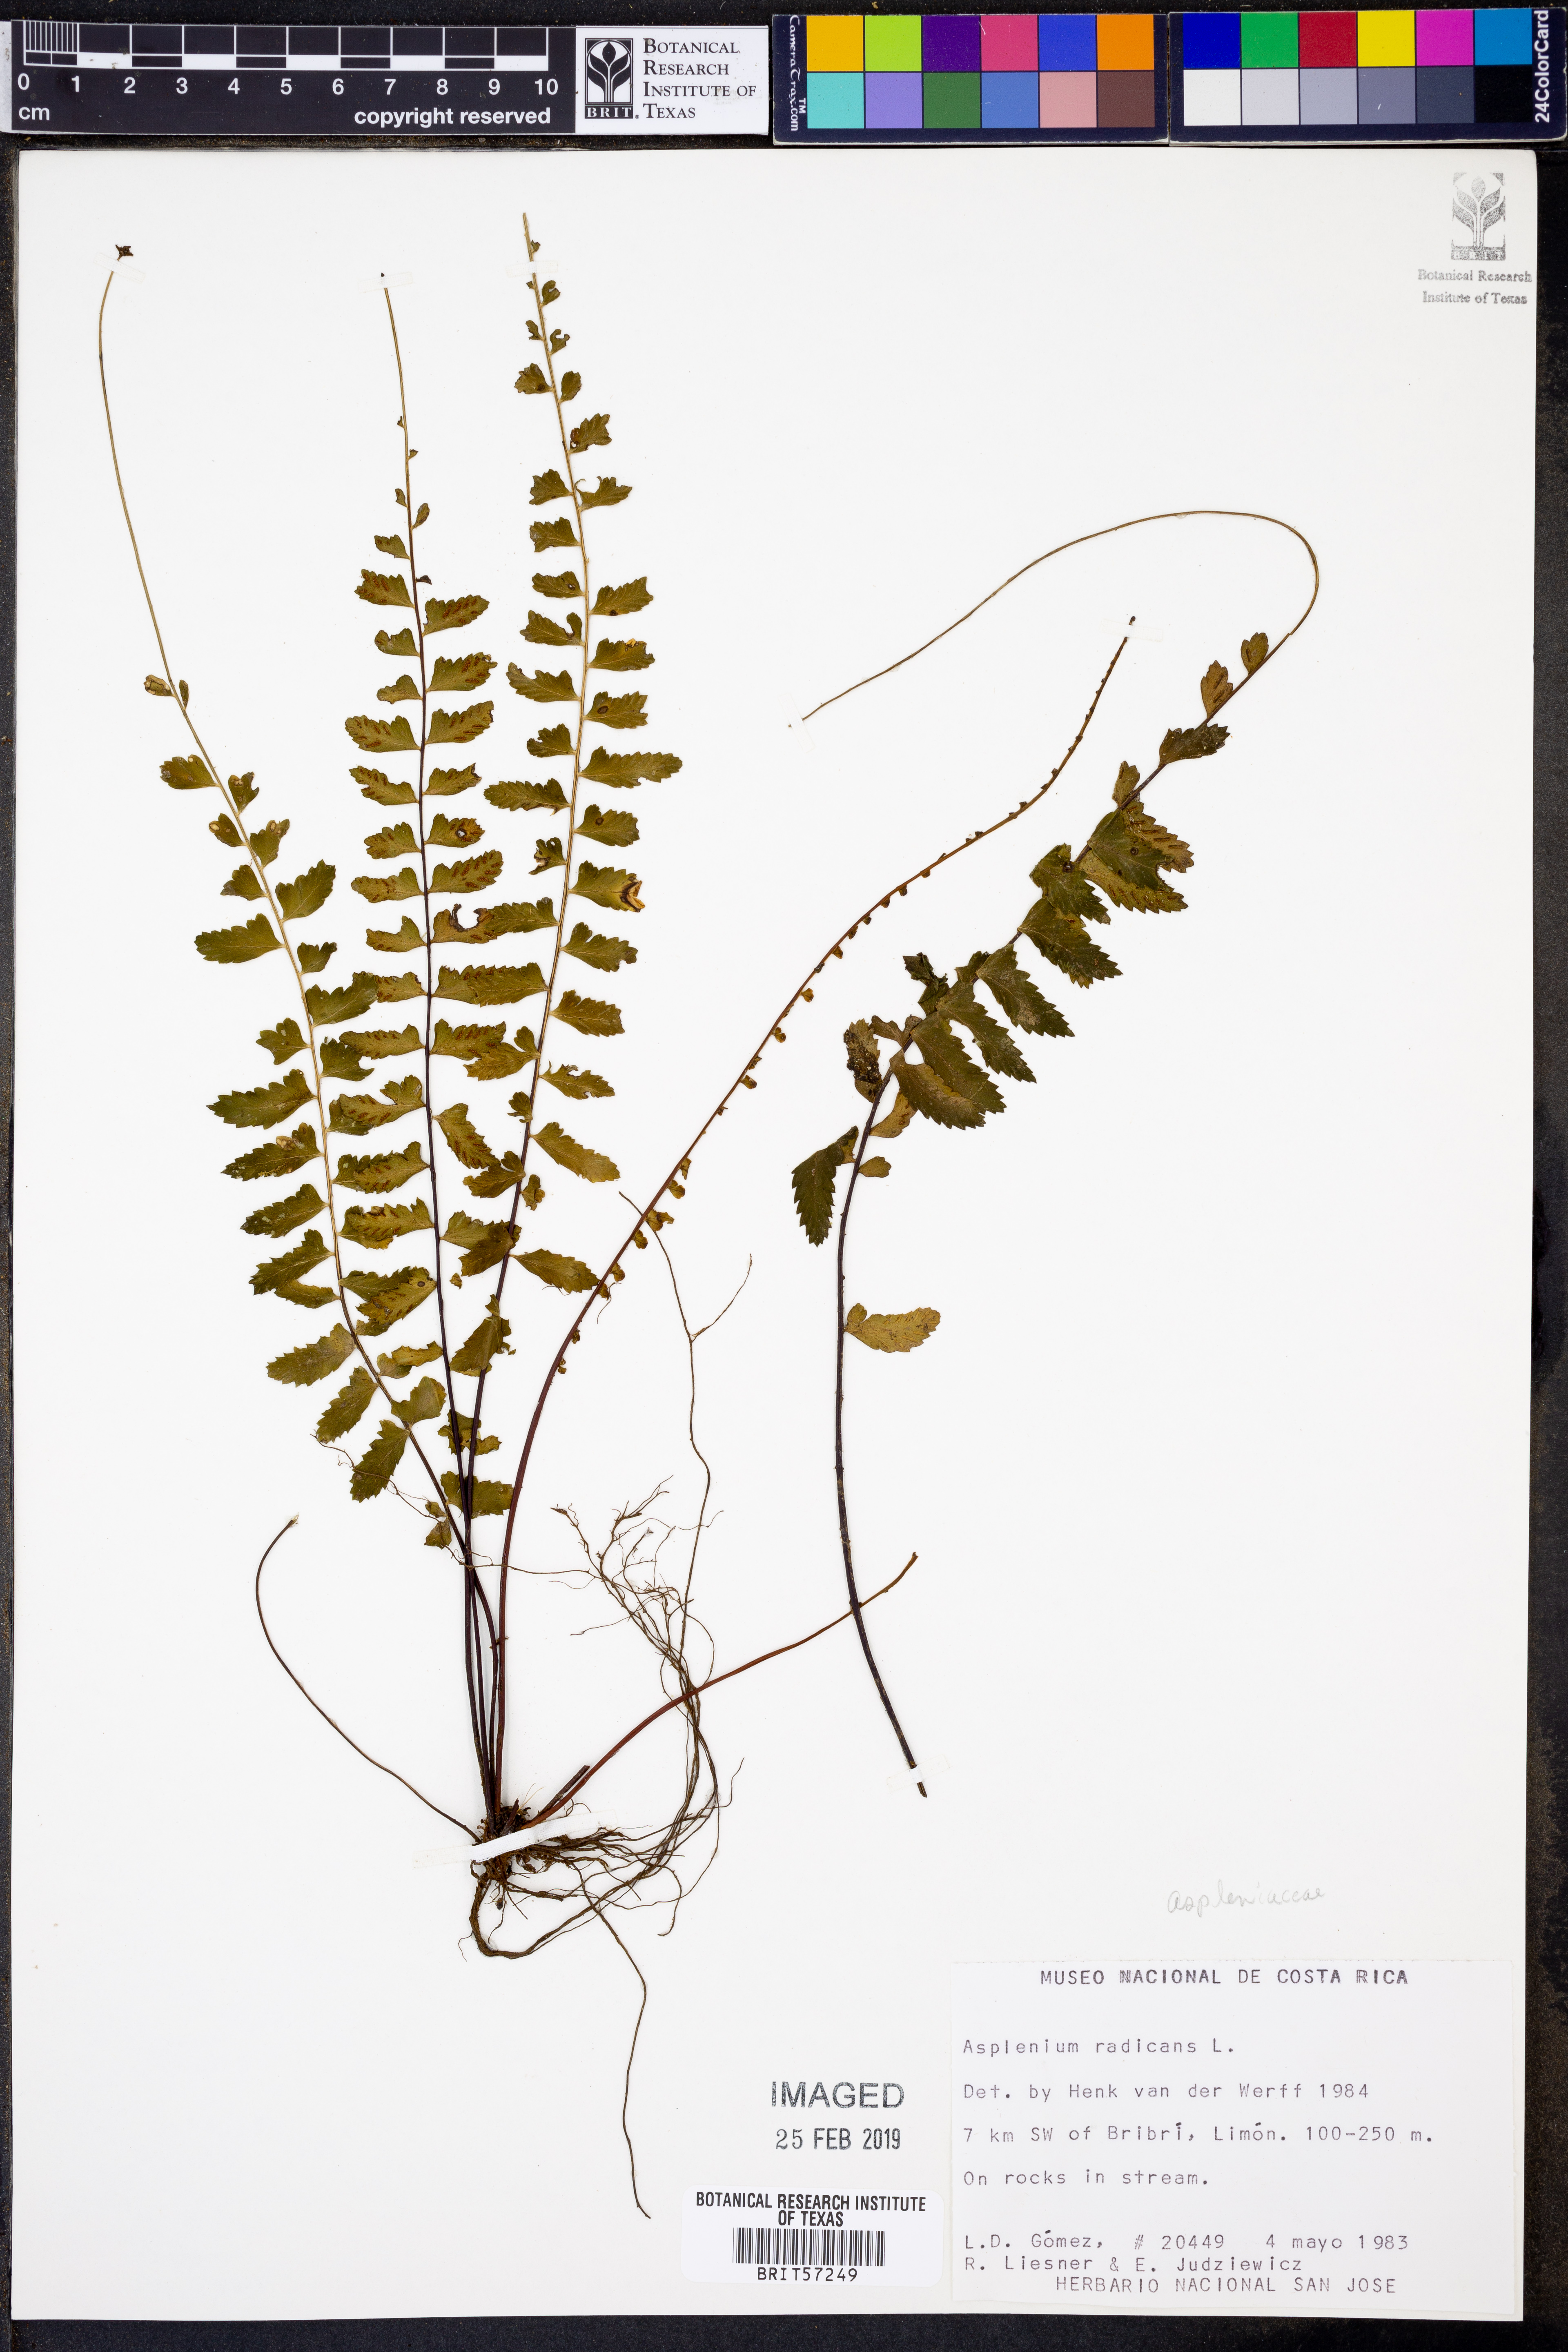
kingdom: Plantae
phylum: Tracheophyta
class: Polypodiopsida
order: Polypodiales
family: Aspleniaceae
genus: Asplenium
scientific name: Asplenium radicans
